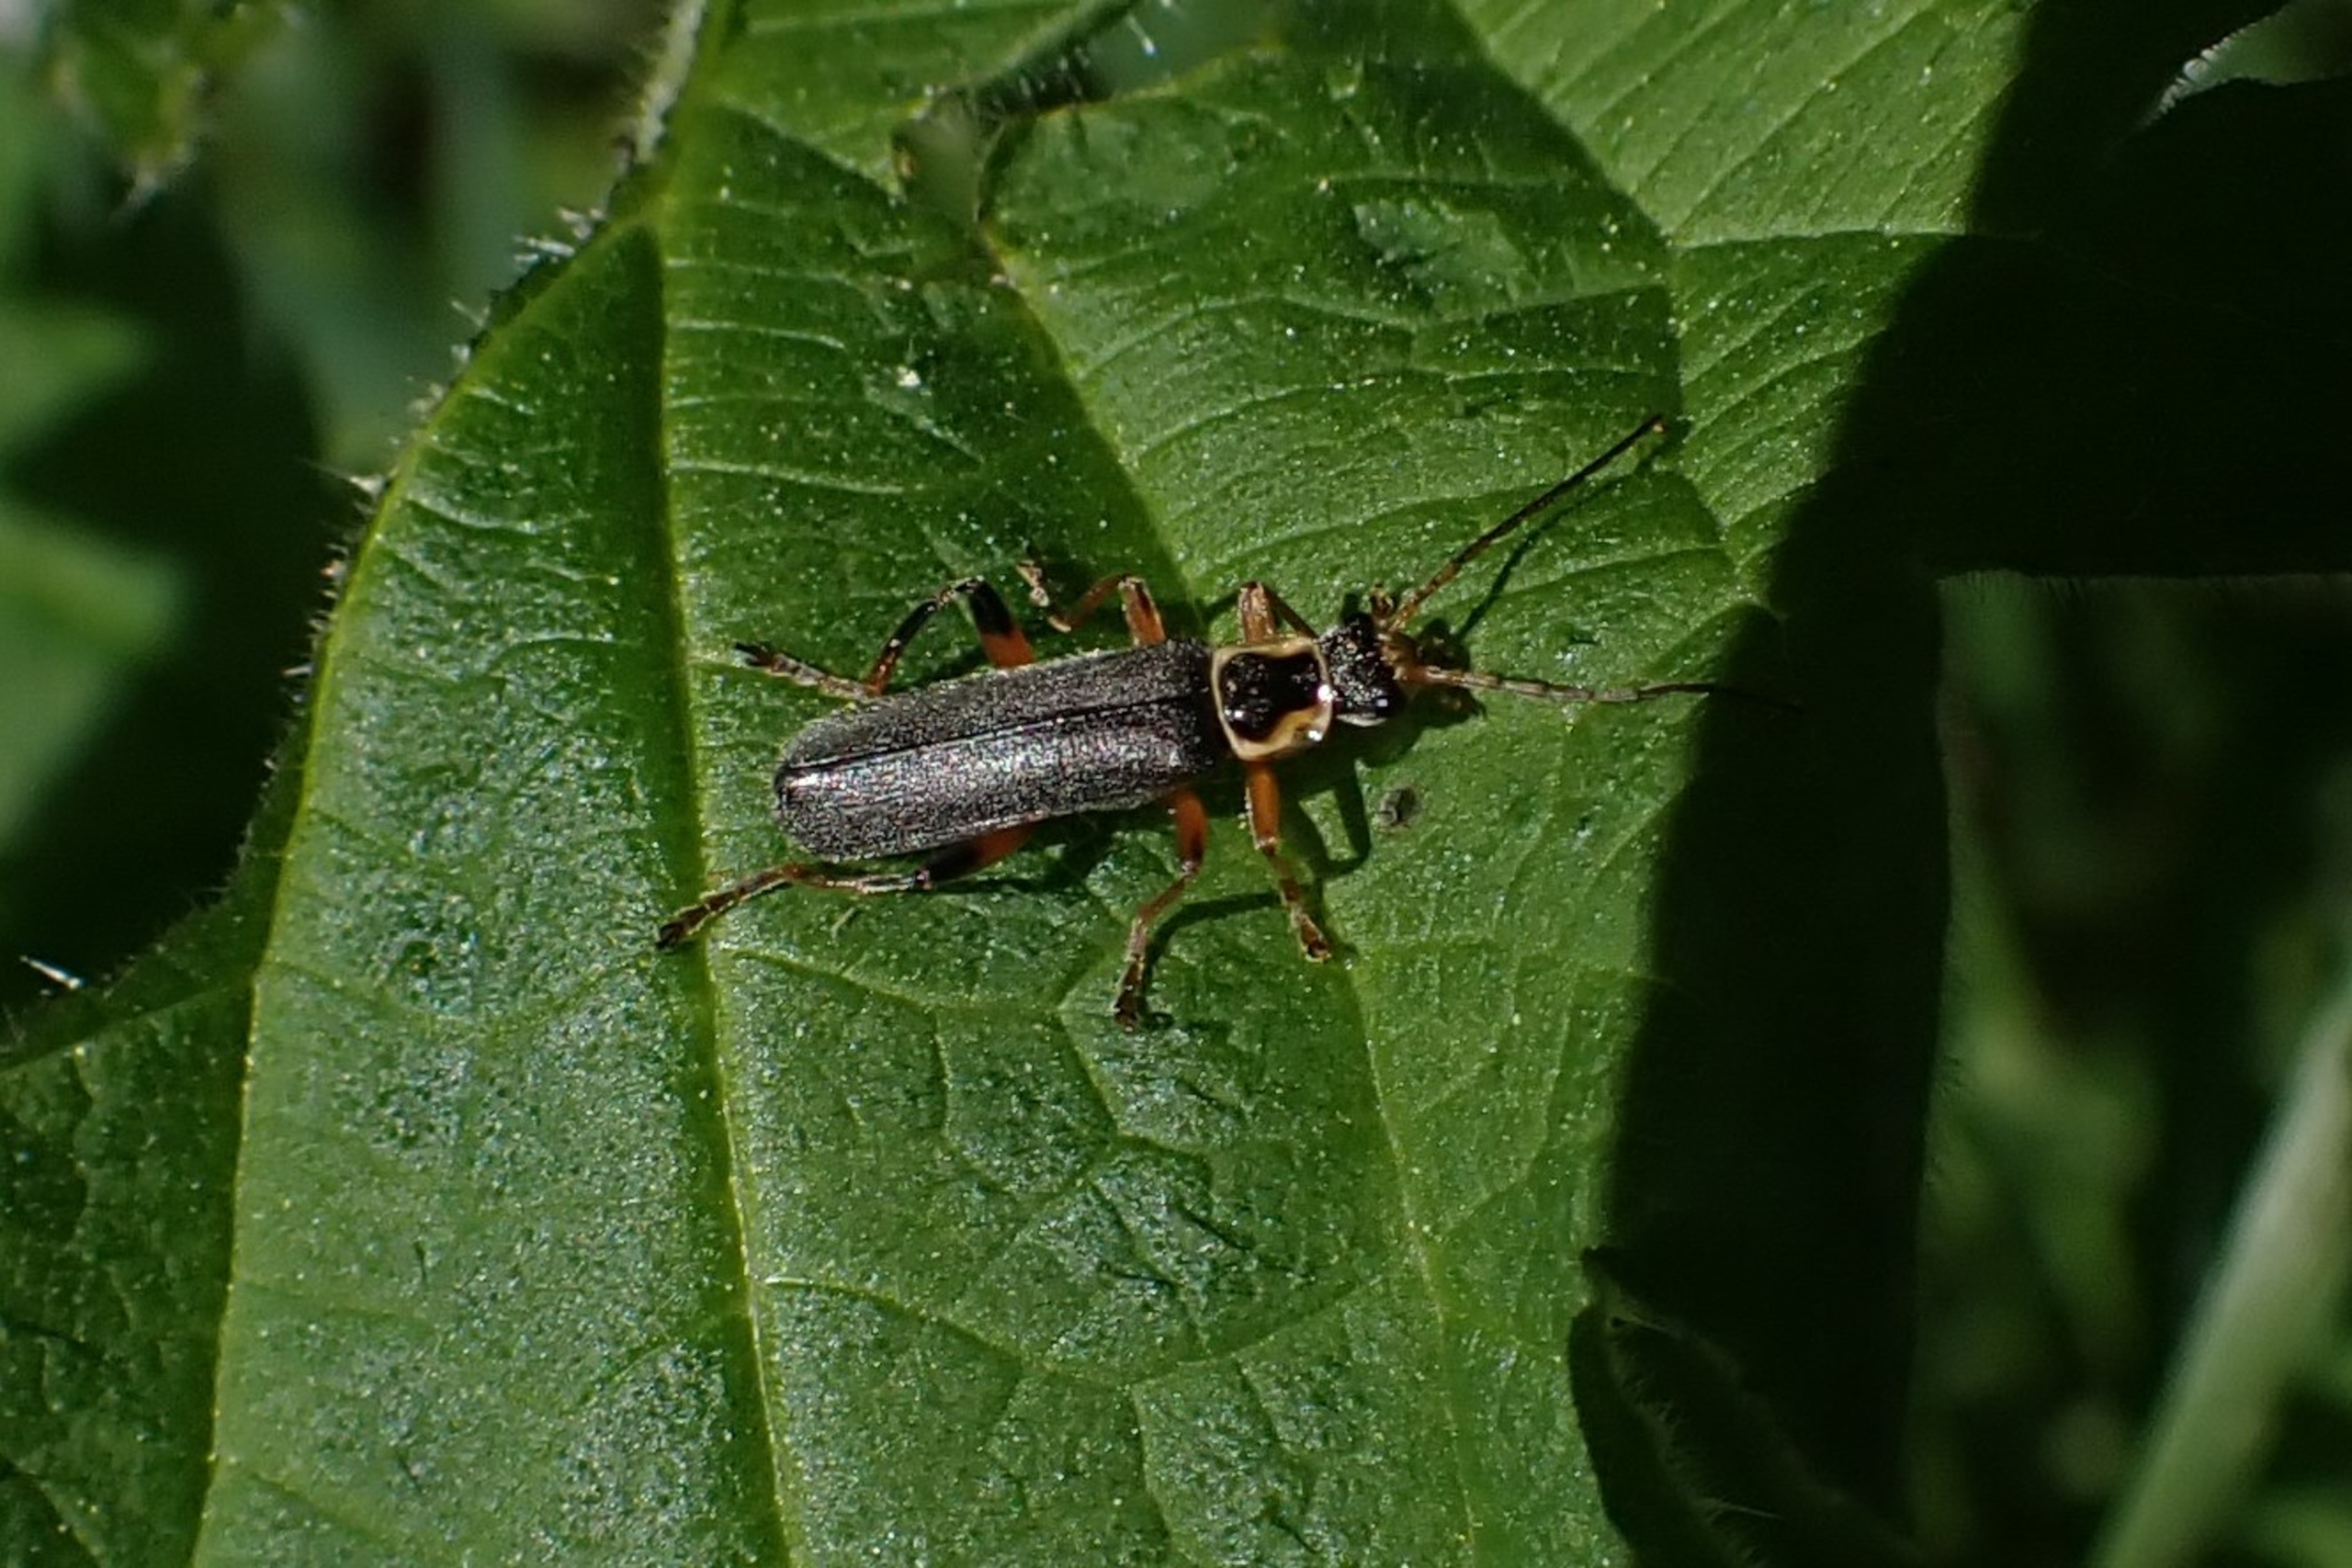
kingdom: Animalia
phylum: Arthropoda
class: Insecta
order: Coleoptera
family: Cantharidae
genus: Cantharis
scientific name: Cantharis nigricans
